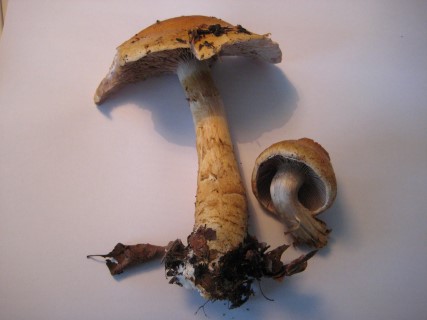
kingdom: Fungi
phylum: Basidiomycota
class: Agaricomycetes
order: Agaricales
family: Cortinariaceae
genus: Phlegmacium
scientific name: Phlegmacium triumphans
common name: gulbæltet slørhat
